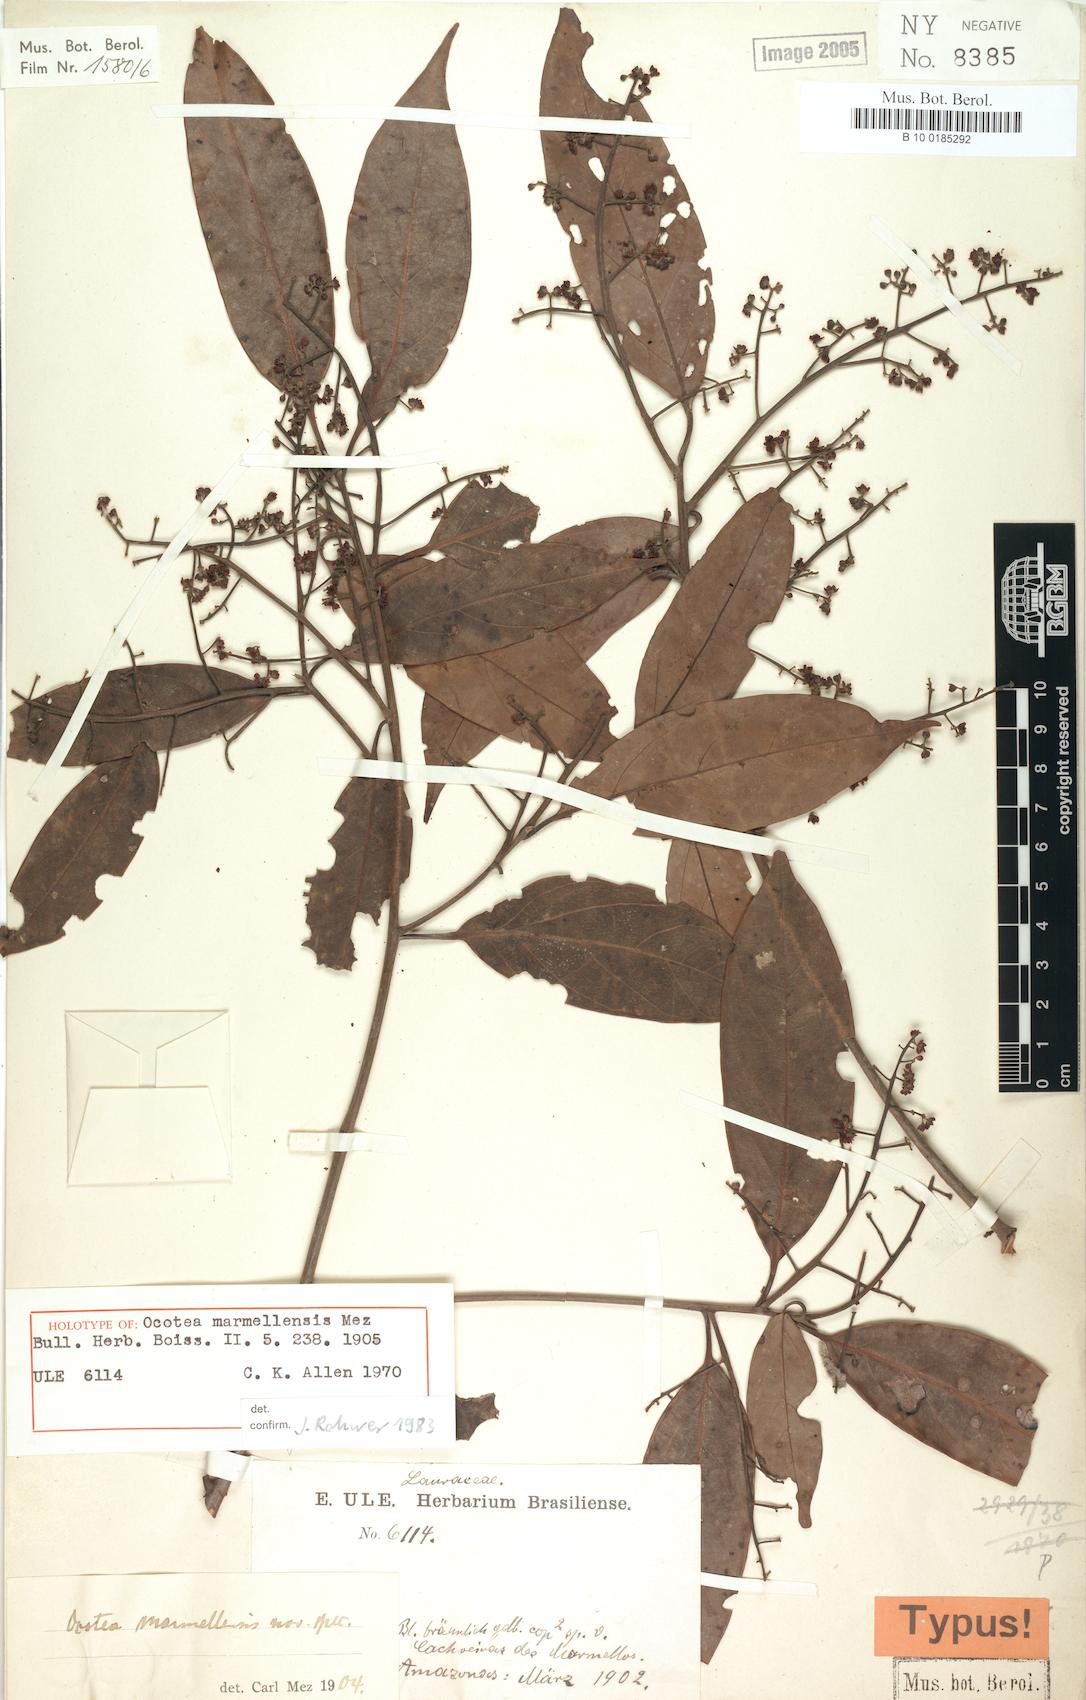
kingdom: Plantae
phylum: Tracheophyta
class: Magnoliopsida
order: Laurales
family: Lauraceae
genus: Ocotea
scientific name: Ocotea marmellensis
